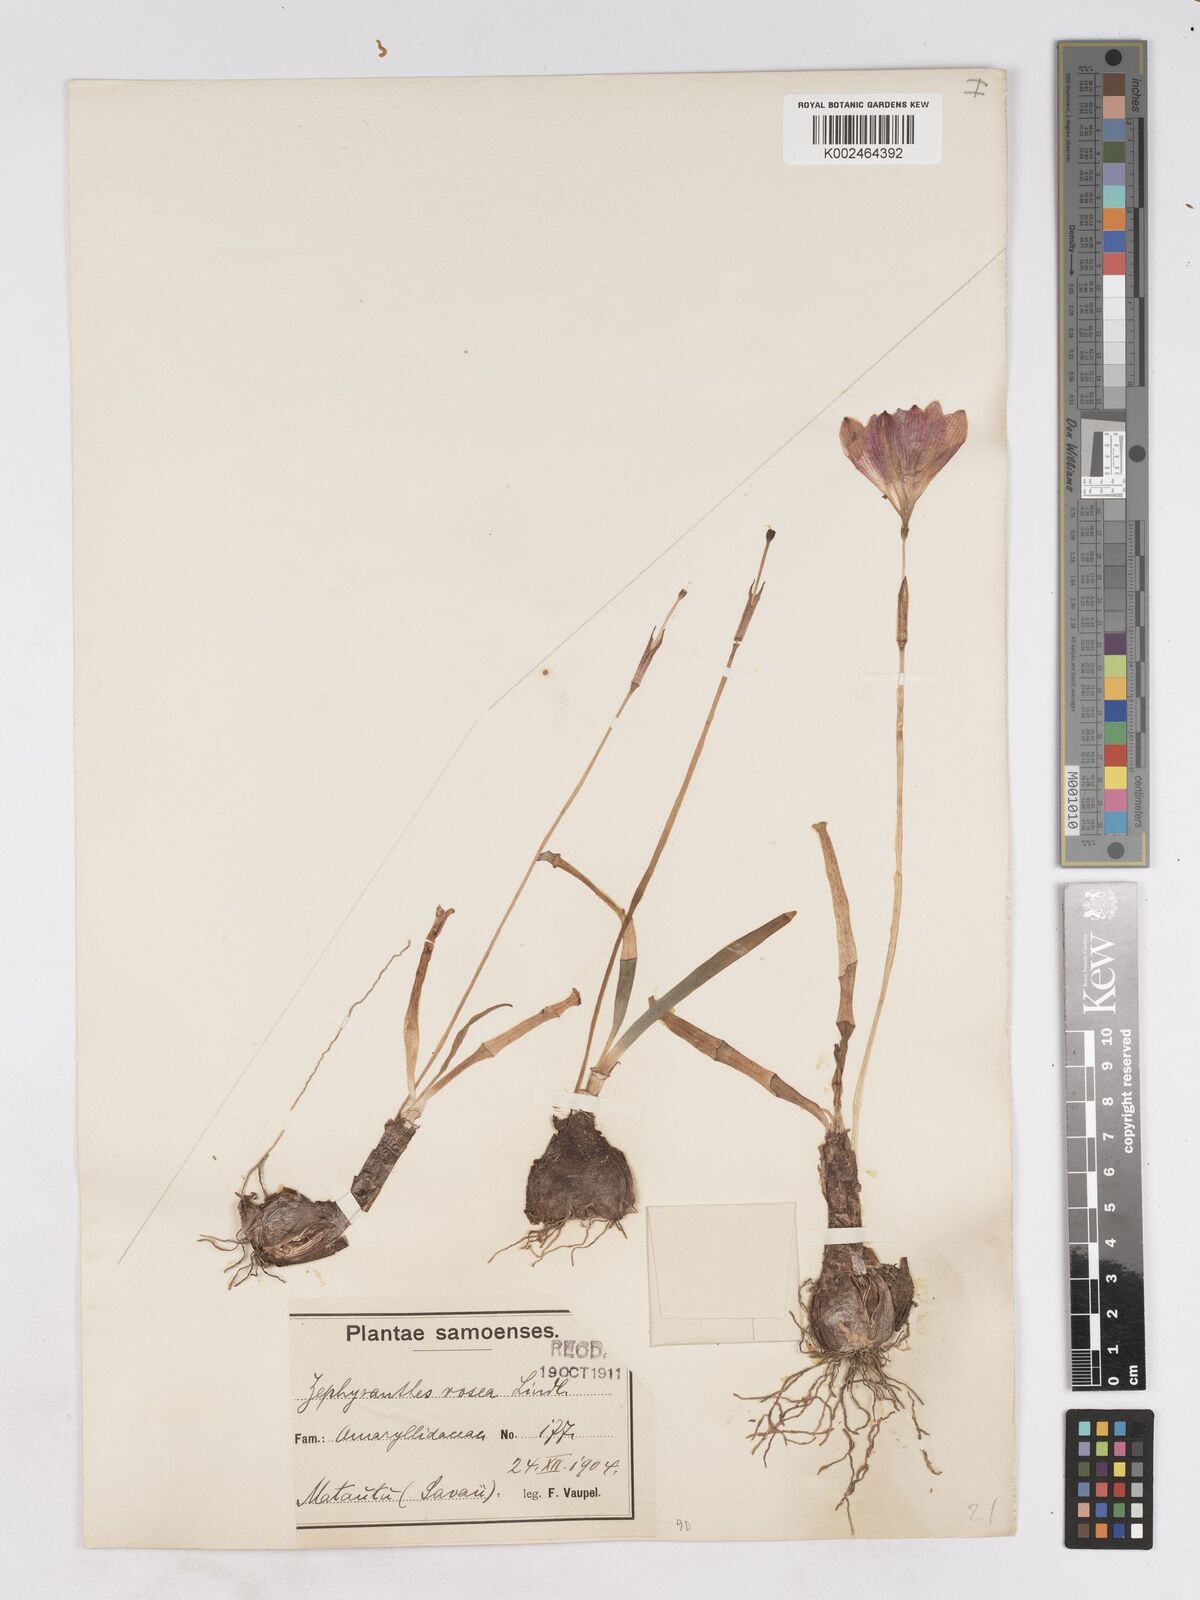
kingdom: Plantae
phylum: Tracheophyta
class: Liliopsida
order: Asparagales
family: Amaryllidaceae
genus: Zephyranthes
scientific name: Zephyranthes rosea
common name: Cuban zephyrlily
